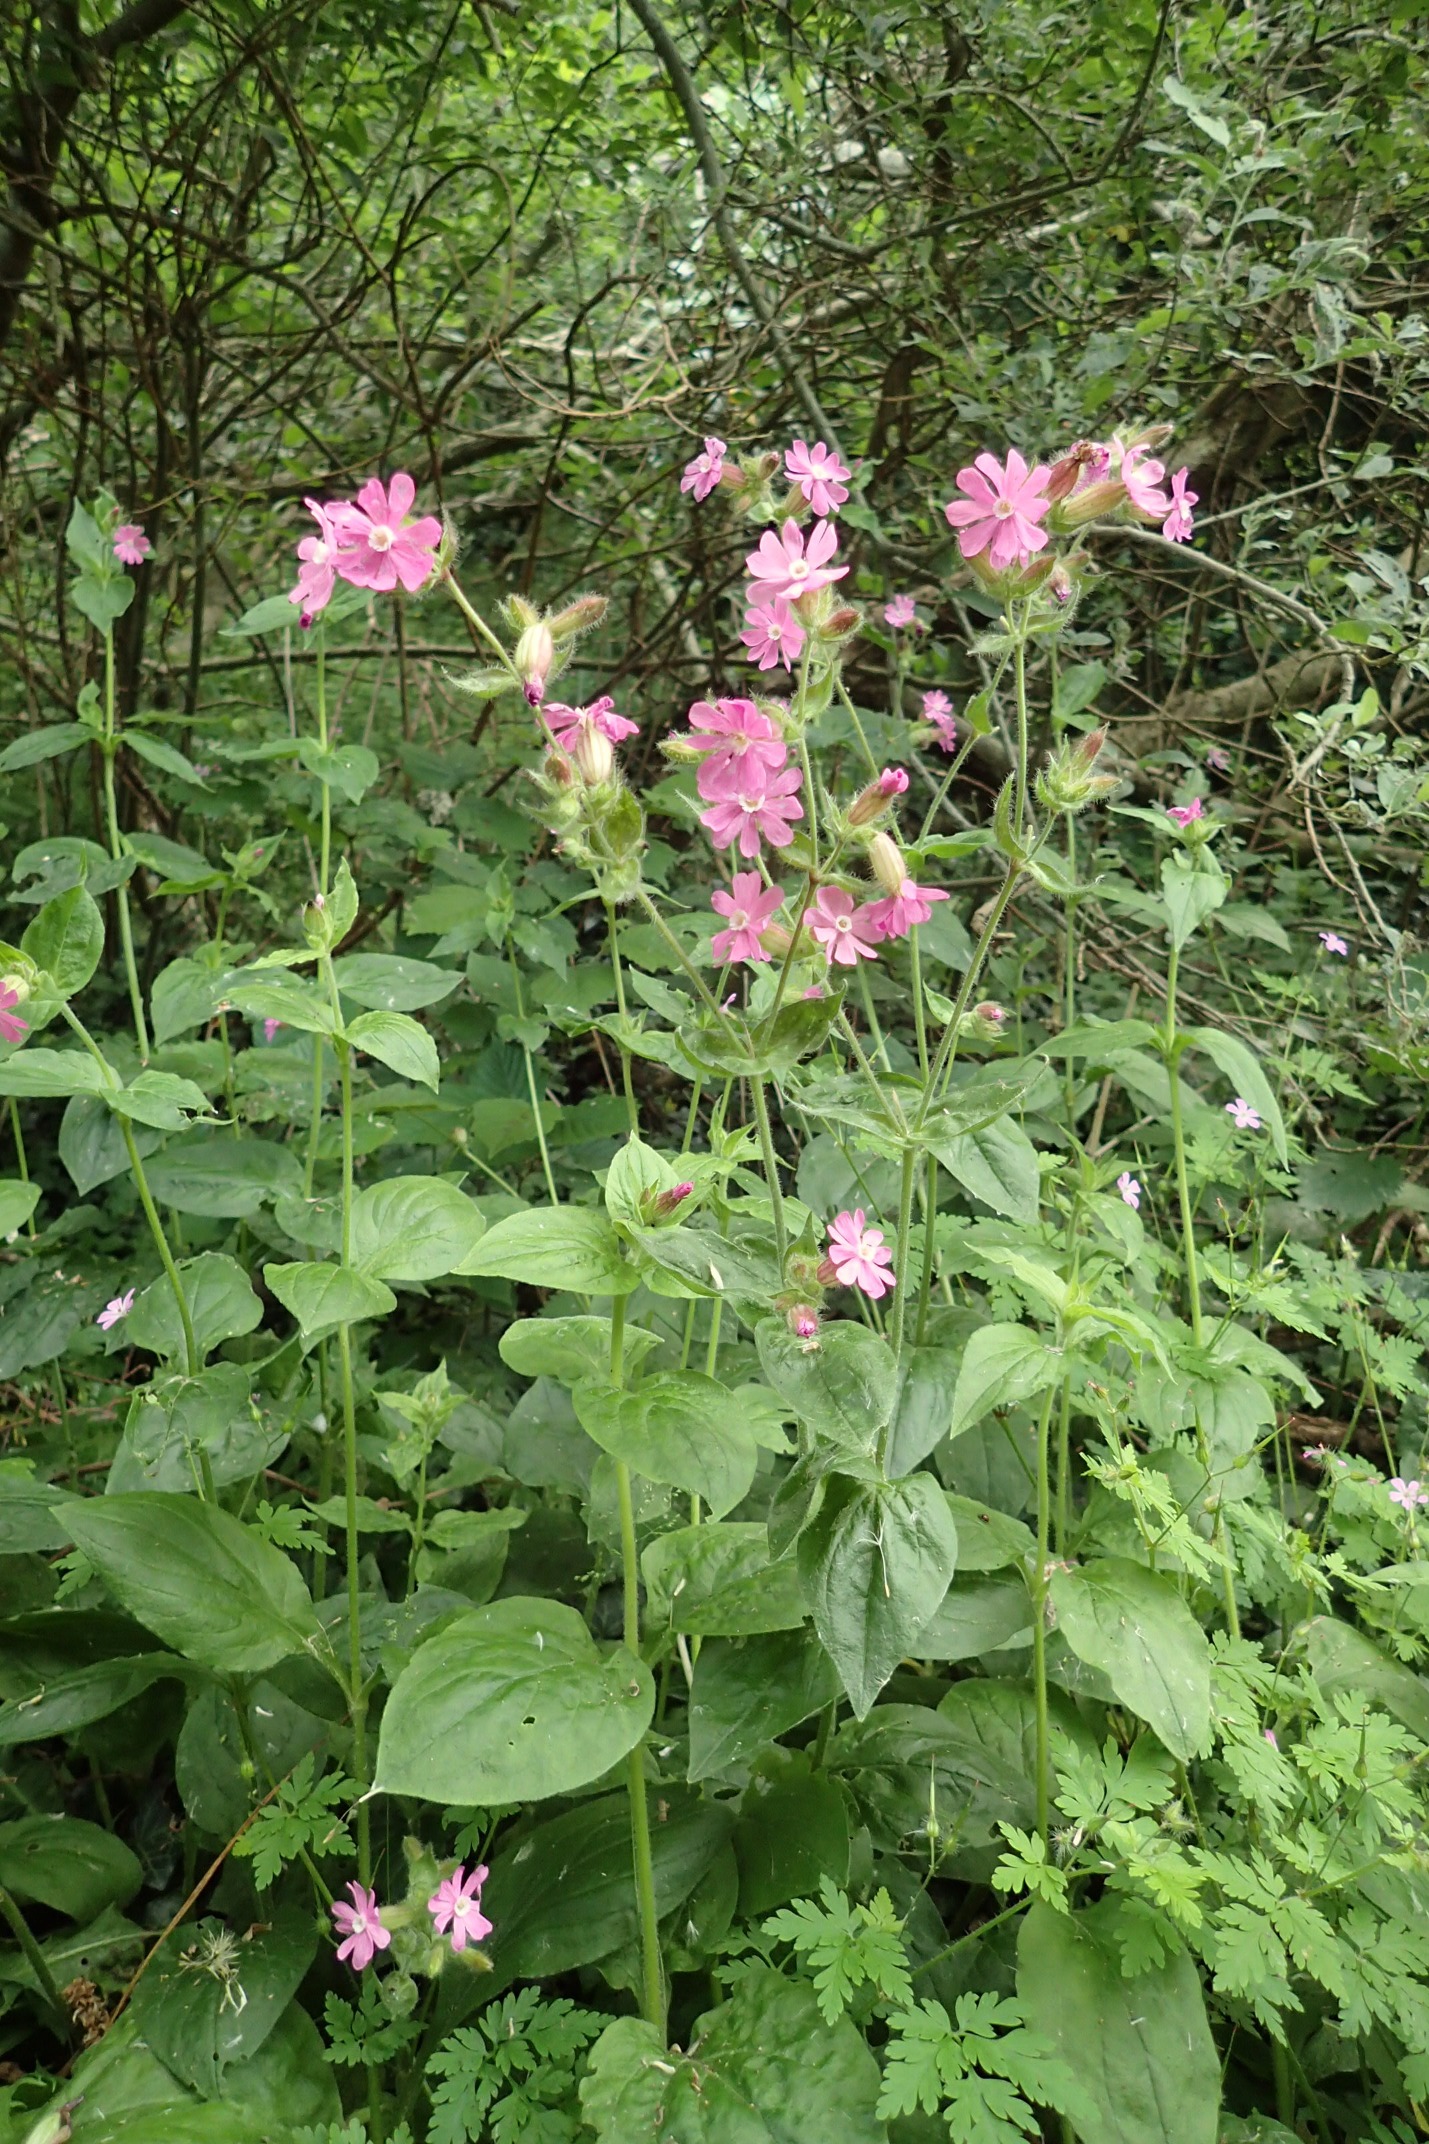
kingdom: Plantae
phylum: Tracheophyta
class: Magnoliopsida
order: Caryophyllales
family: Caryophyllaceae
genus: Silene
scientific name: Silene dioica
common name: Dagpragtstjerne
